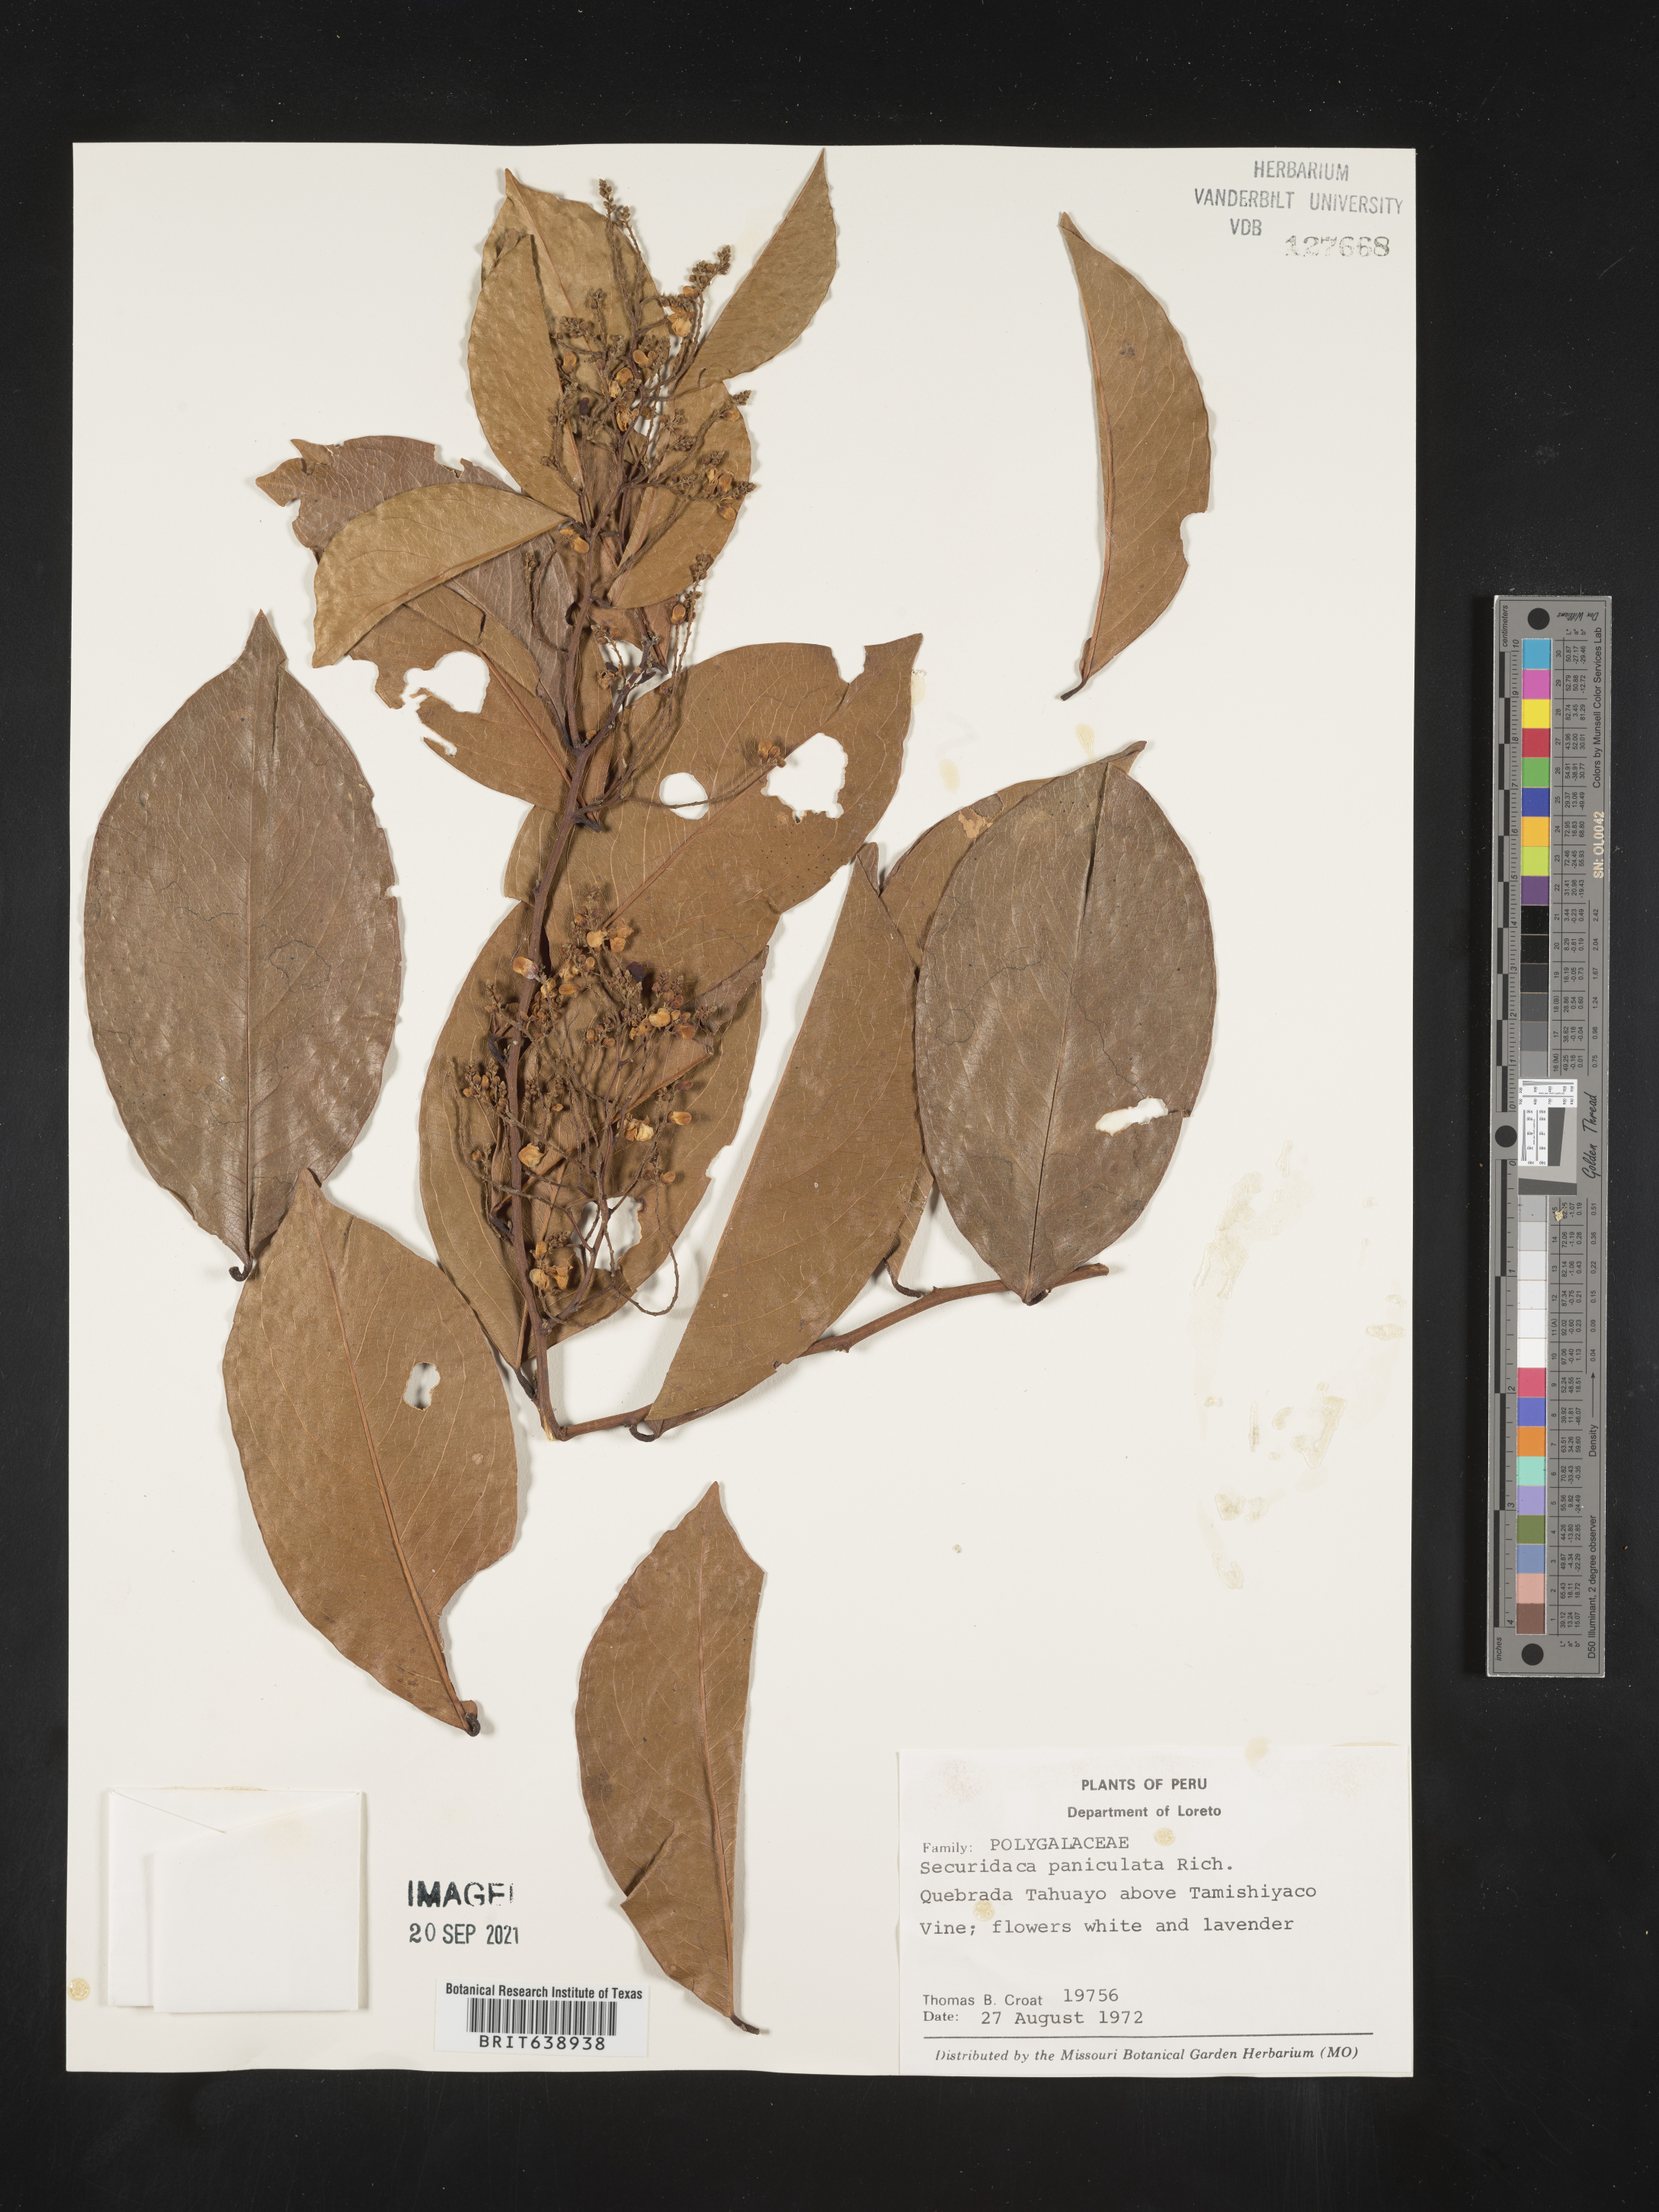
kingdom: Plantae
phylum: Tracheophyta
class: Magnoliopsida
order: Fabales
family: Polygalaceae
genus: Securidaca
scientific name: Securidaca
